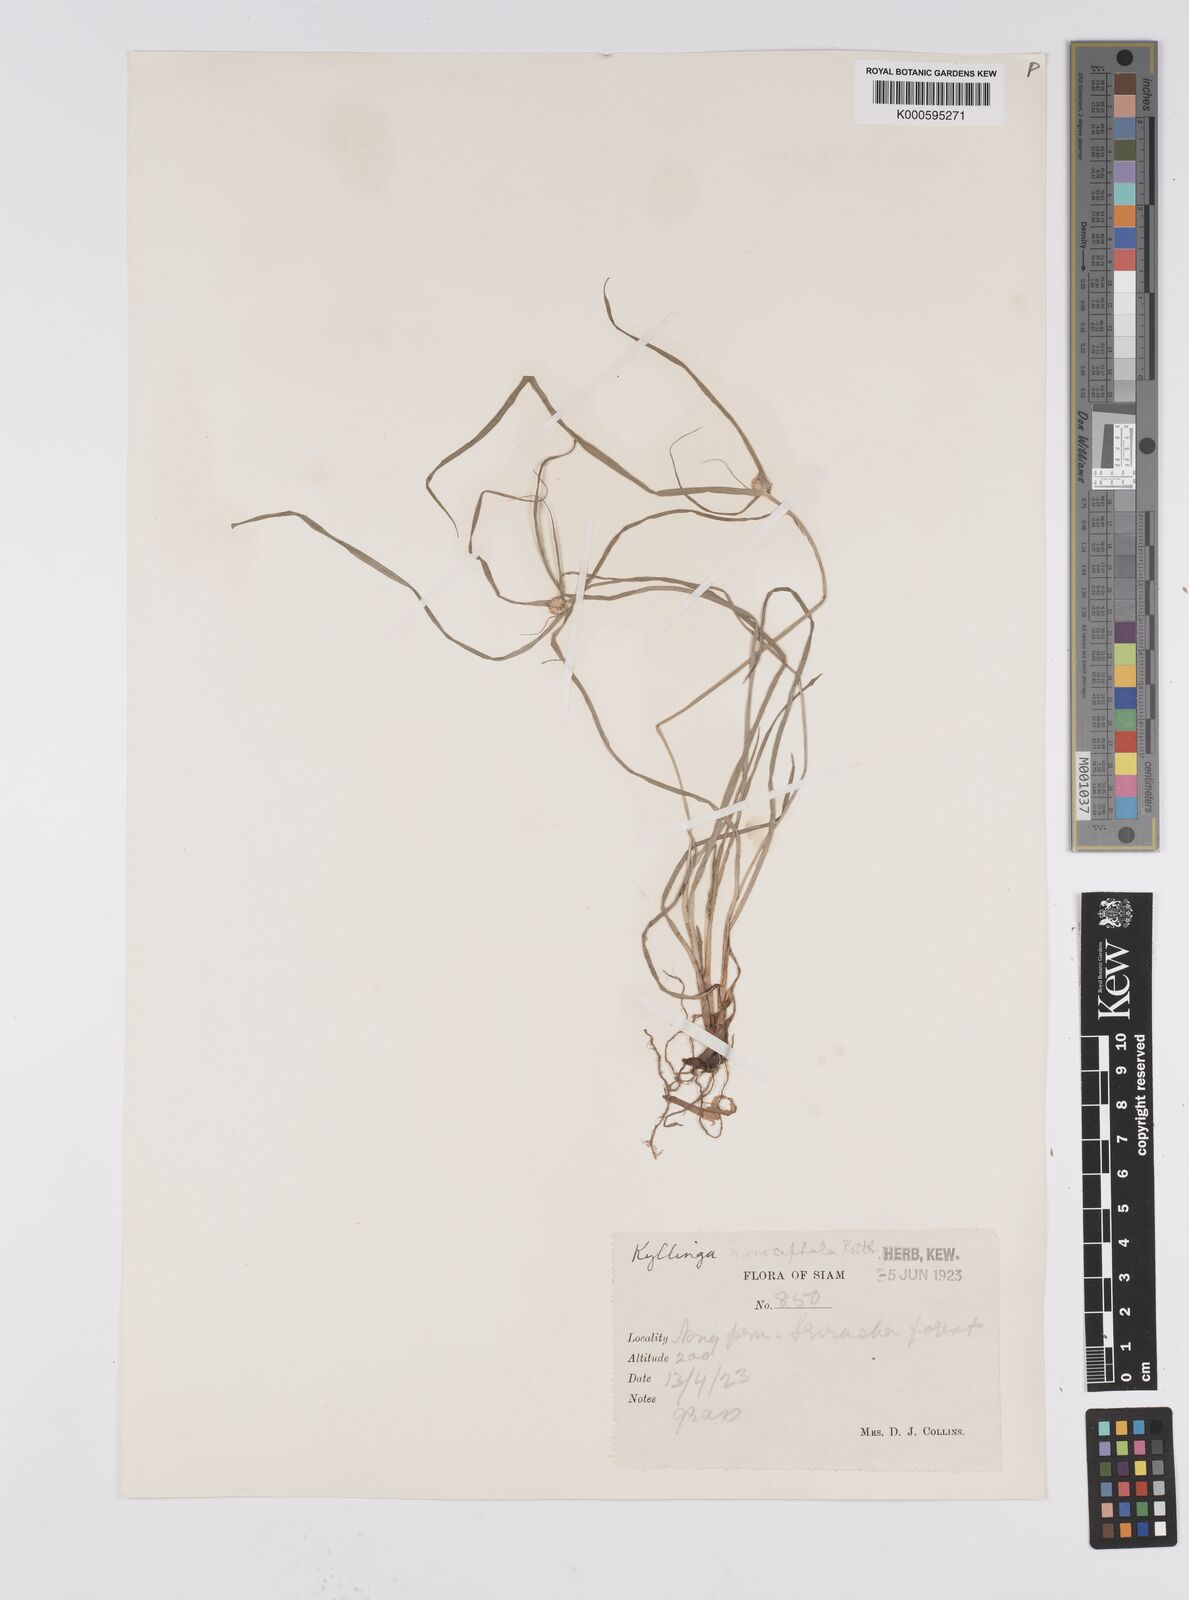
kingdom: Plantae
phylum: Tracheophyta
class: Liliopsida
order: Poales
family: Cyperaceae
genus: Cyperus
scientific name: Cyperus mindorensis
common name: Flatsedge
